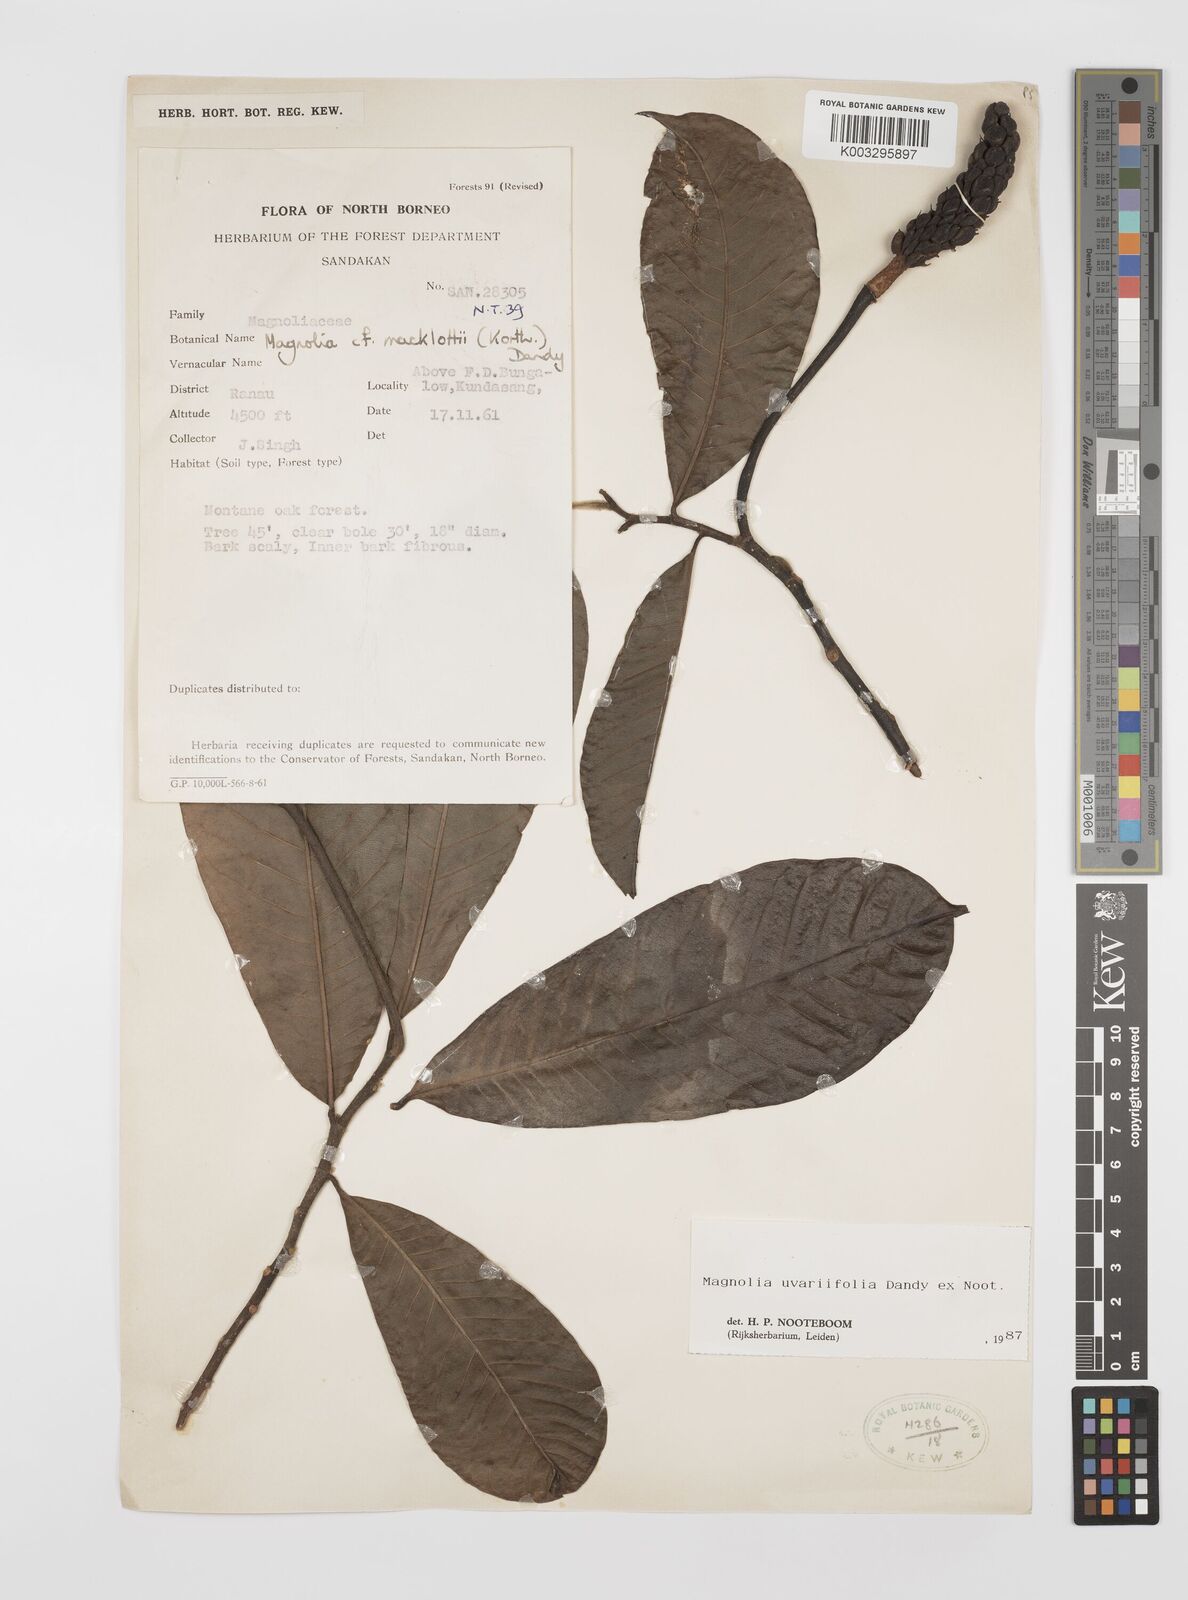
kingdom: Plantae
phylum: Tracheophyta
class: Magnoliopsida
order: Magnoliales
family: Magnoliaceae
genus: Magnolia
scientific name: Magnolia macklottii
